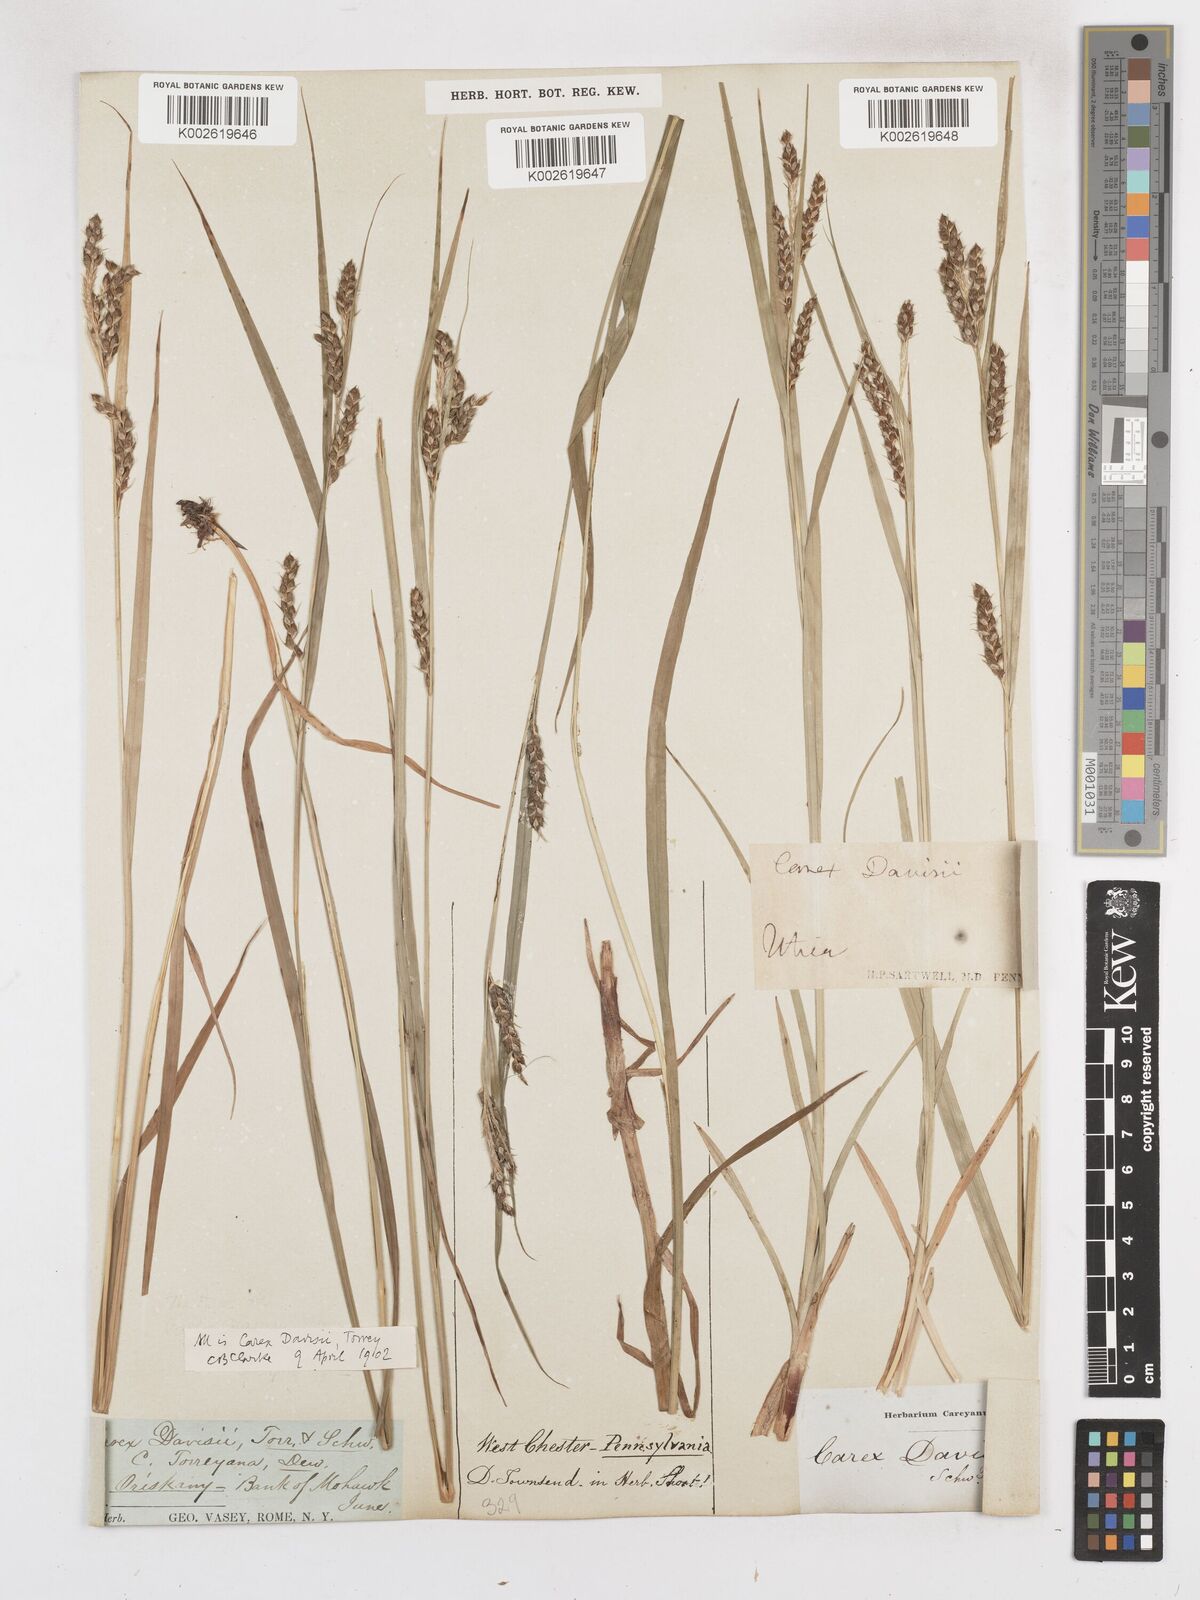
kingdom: Plantae
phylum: Tracheophyta
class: Liliopsida
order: Poales
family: Cyperaceae
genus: Carex
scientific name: Carex davisii
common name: Davis' sedge
